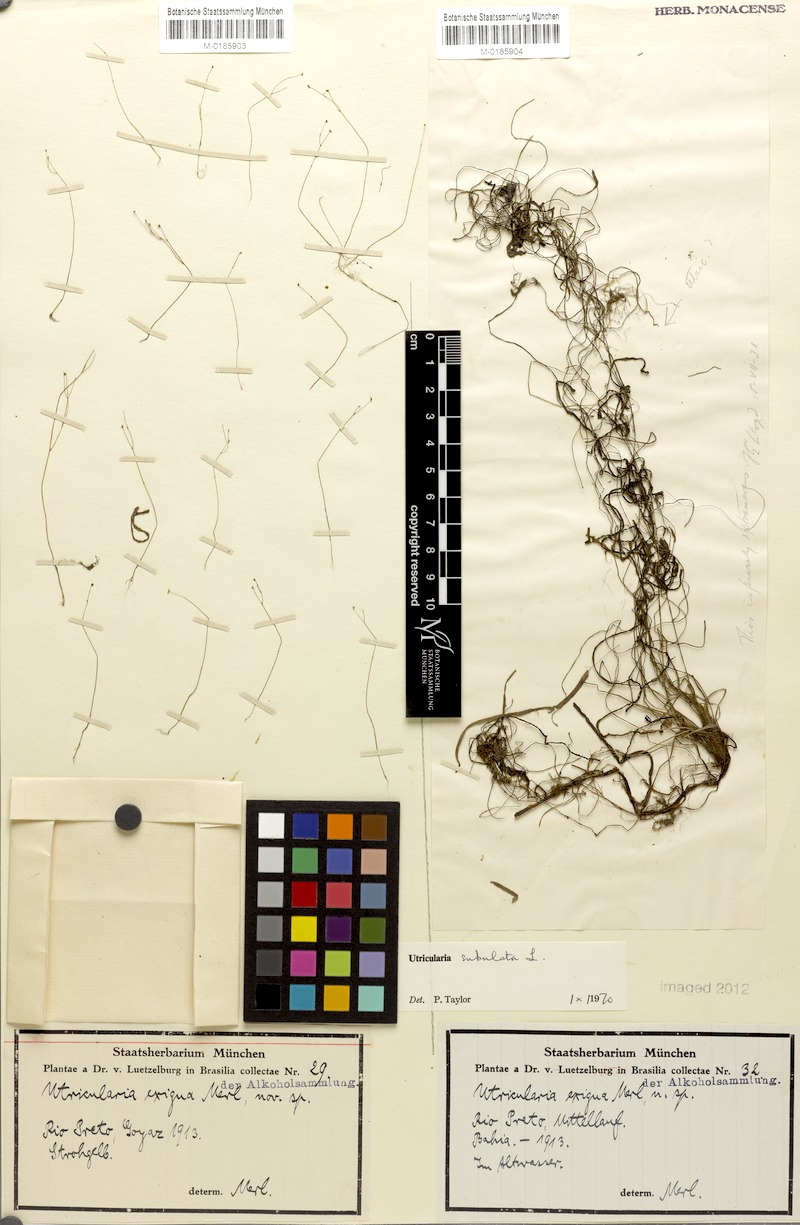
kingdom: Plantae
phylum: Tracheophyta
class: Magnoliopsida
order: Lamiales
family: Lentibulariaceae
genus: Utricularia
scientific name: Utricularia subulata
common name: Tiny bladderwort
